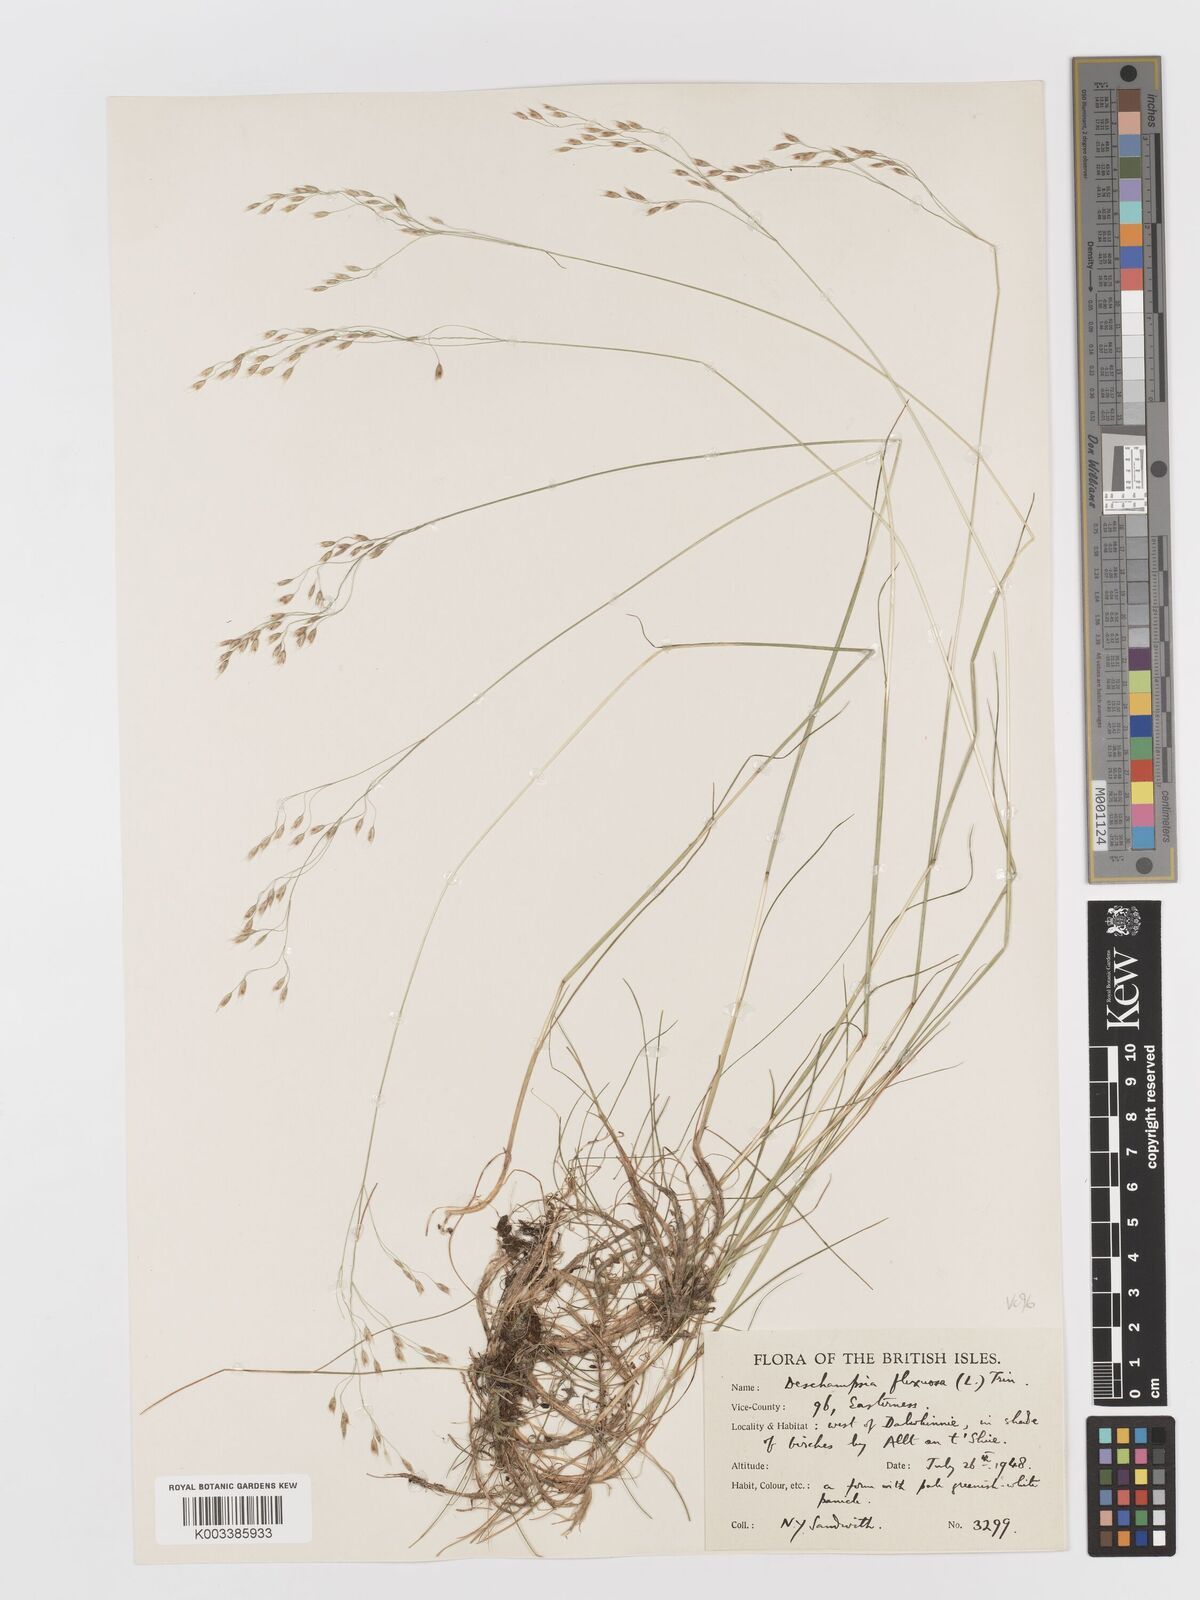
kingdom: Plantae
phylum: Tracheophyta
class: Liliopsida
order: Poales
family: Poaceae
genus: Avenella
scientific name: Avenella flexuosa
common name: Wavy hairgrass
